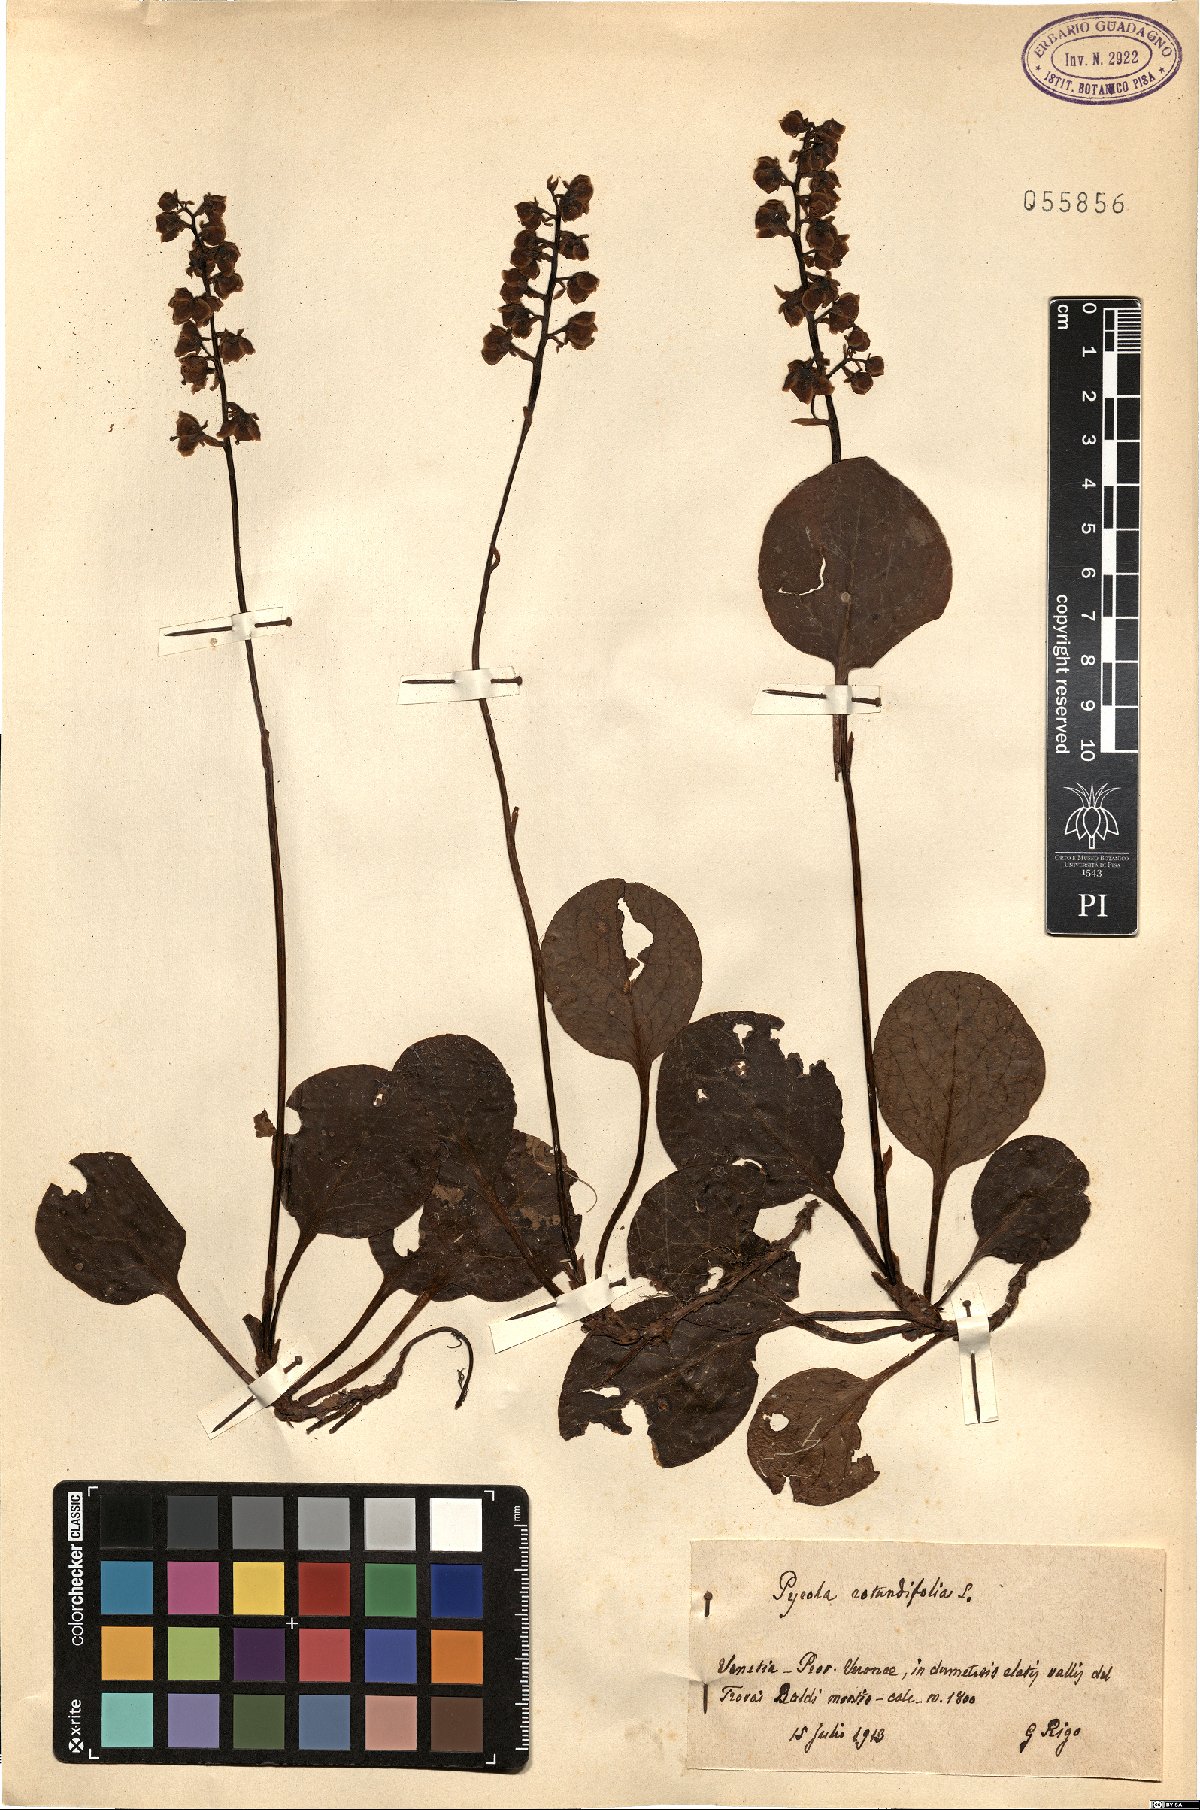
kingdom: Plantae
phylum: Tracheophyta
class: Magnoliopsida
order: Ericales
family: Ericaceae
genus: Pyrola
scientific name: Pyrola rotundifolia
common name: Round-leaved wintergreen
